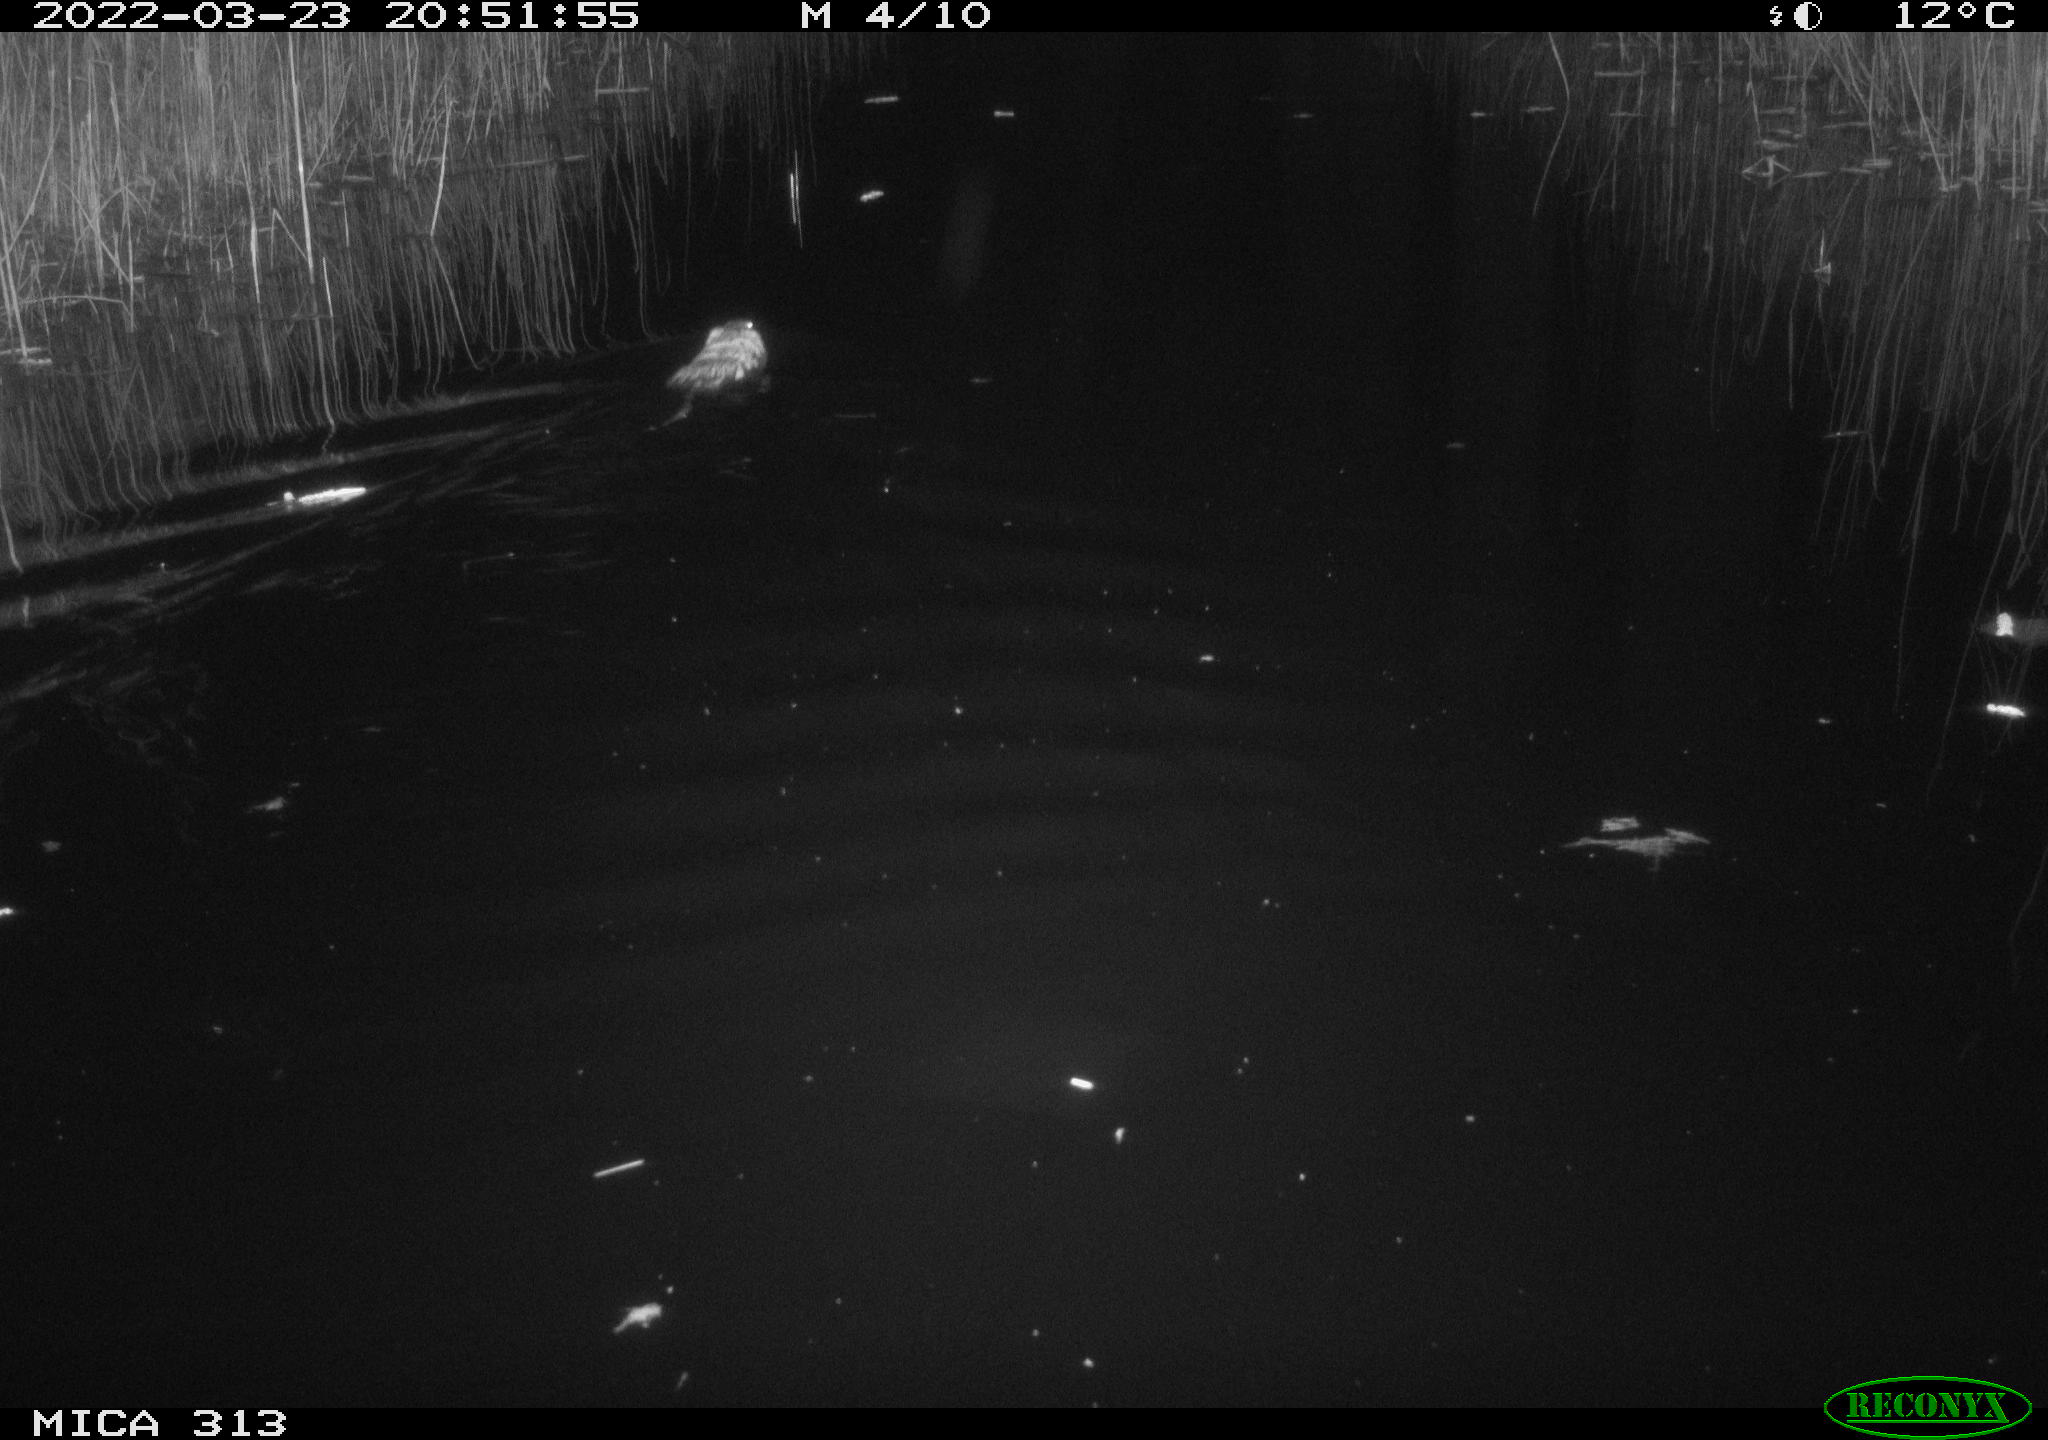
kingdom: Animalia
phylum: Chordata
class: Mammalia
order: Rodentia
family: Cricetidae
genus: Ondatra
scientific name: Ondatra zibethicus
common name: Muskrat
